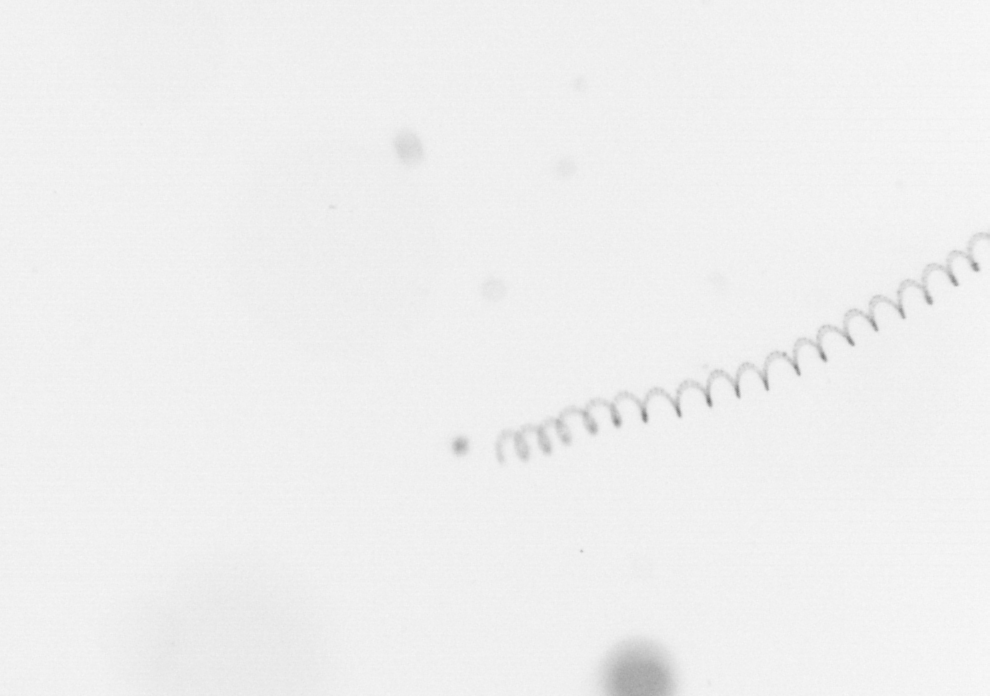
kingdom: Chromista
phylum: Ochrophyta
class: Bacillariophyceae
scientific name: Bacillariophyceae
